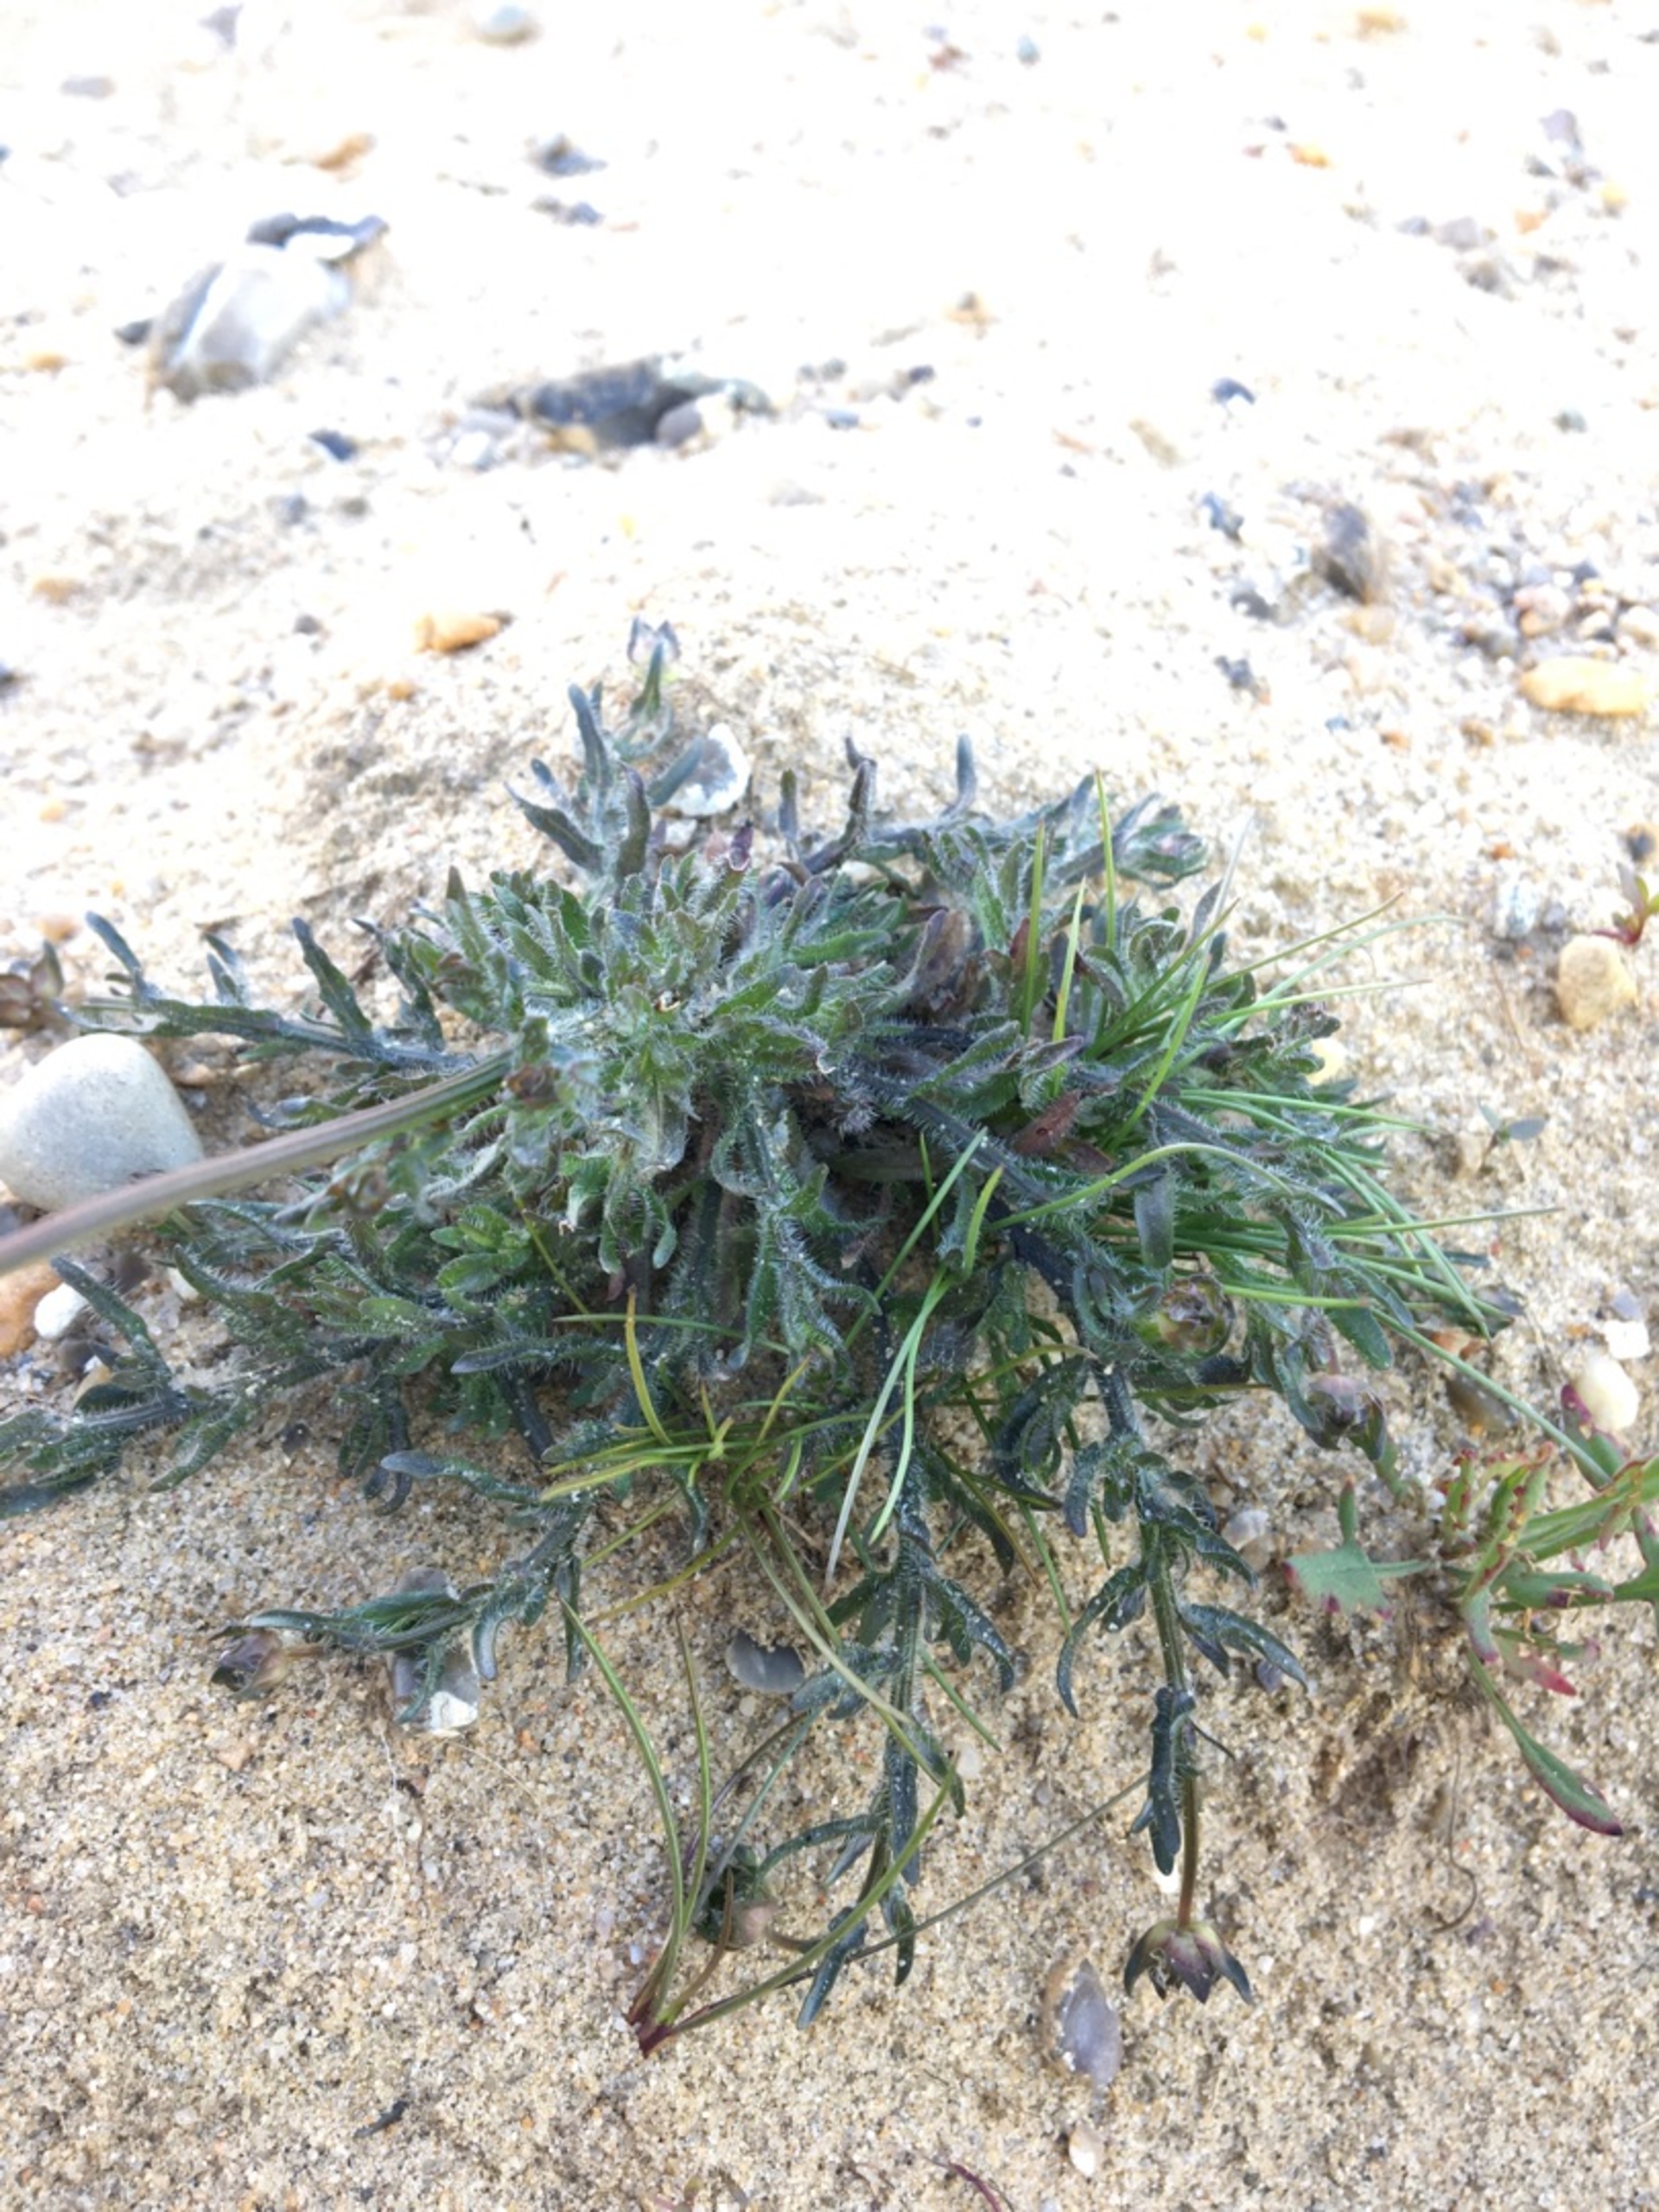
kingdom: Plantae
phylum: Tracheophyta
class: Magnoliopsida
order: Asterales
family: Campanulaceae
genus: Jasione
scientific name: Jasione montana
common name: Blåmunke
